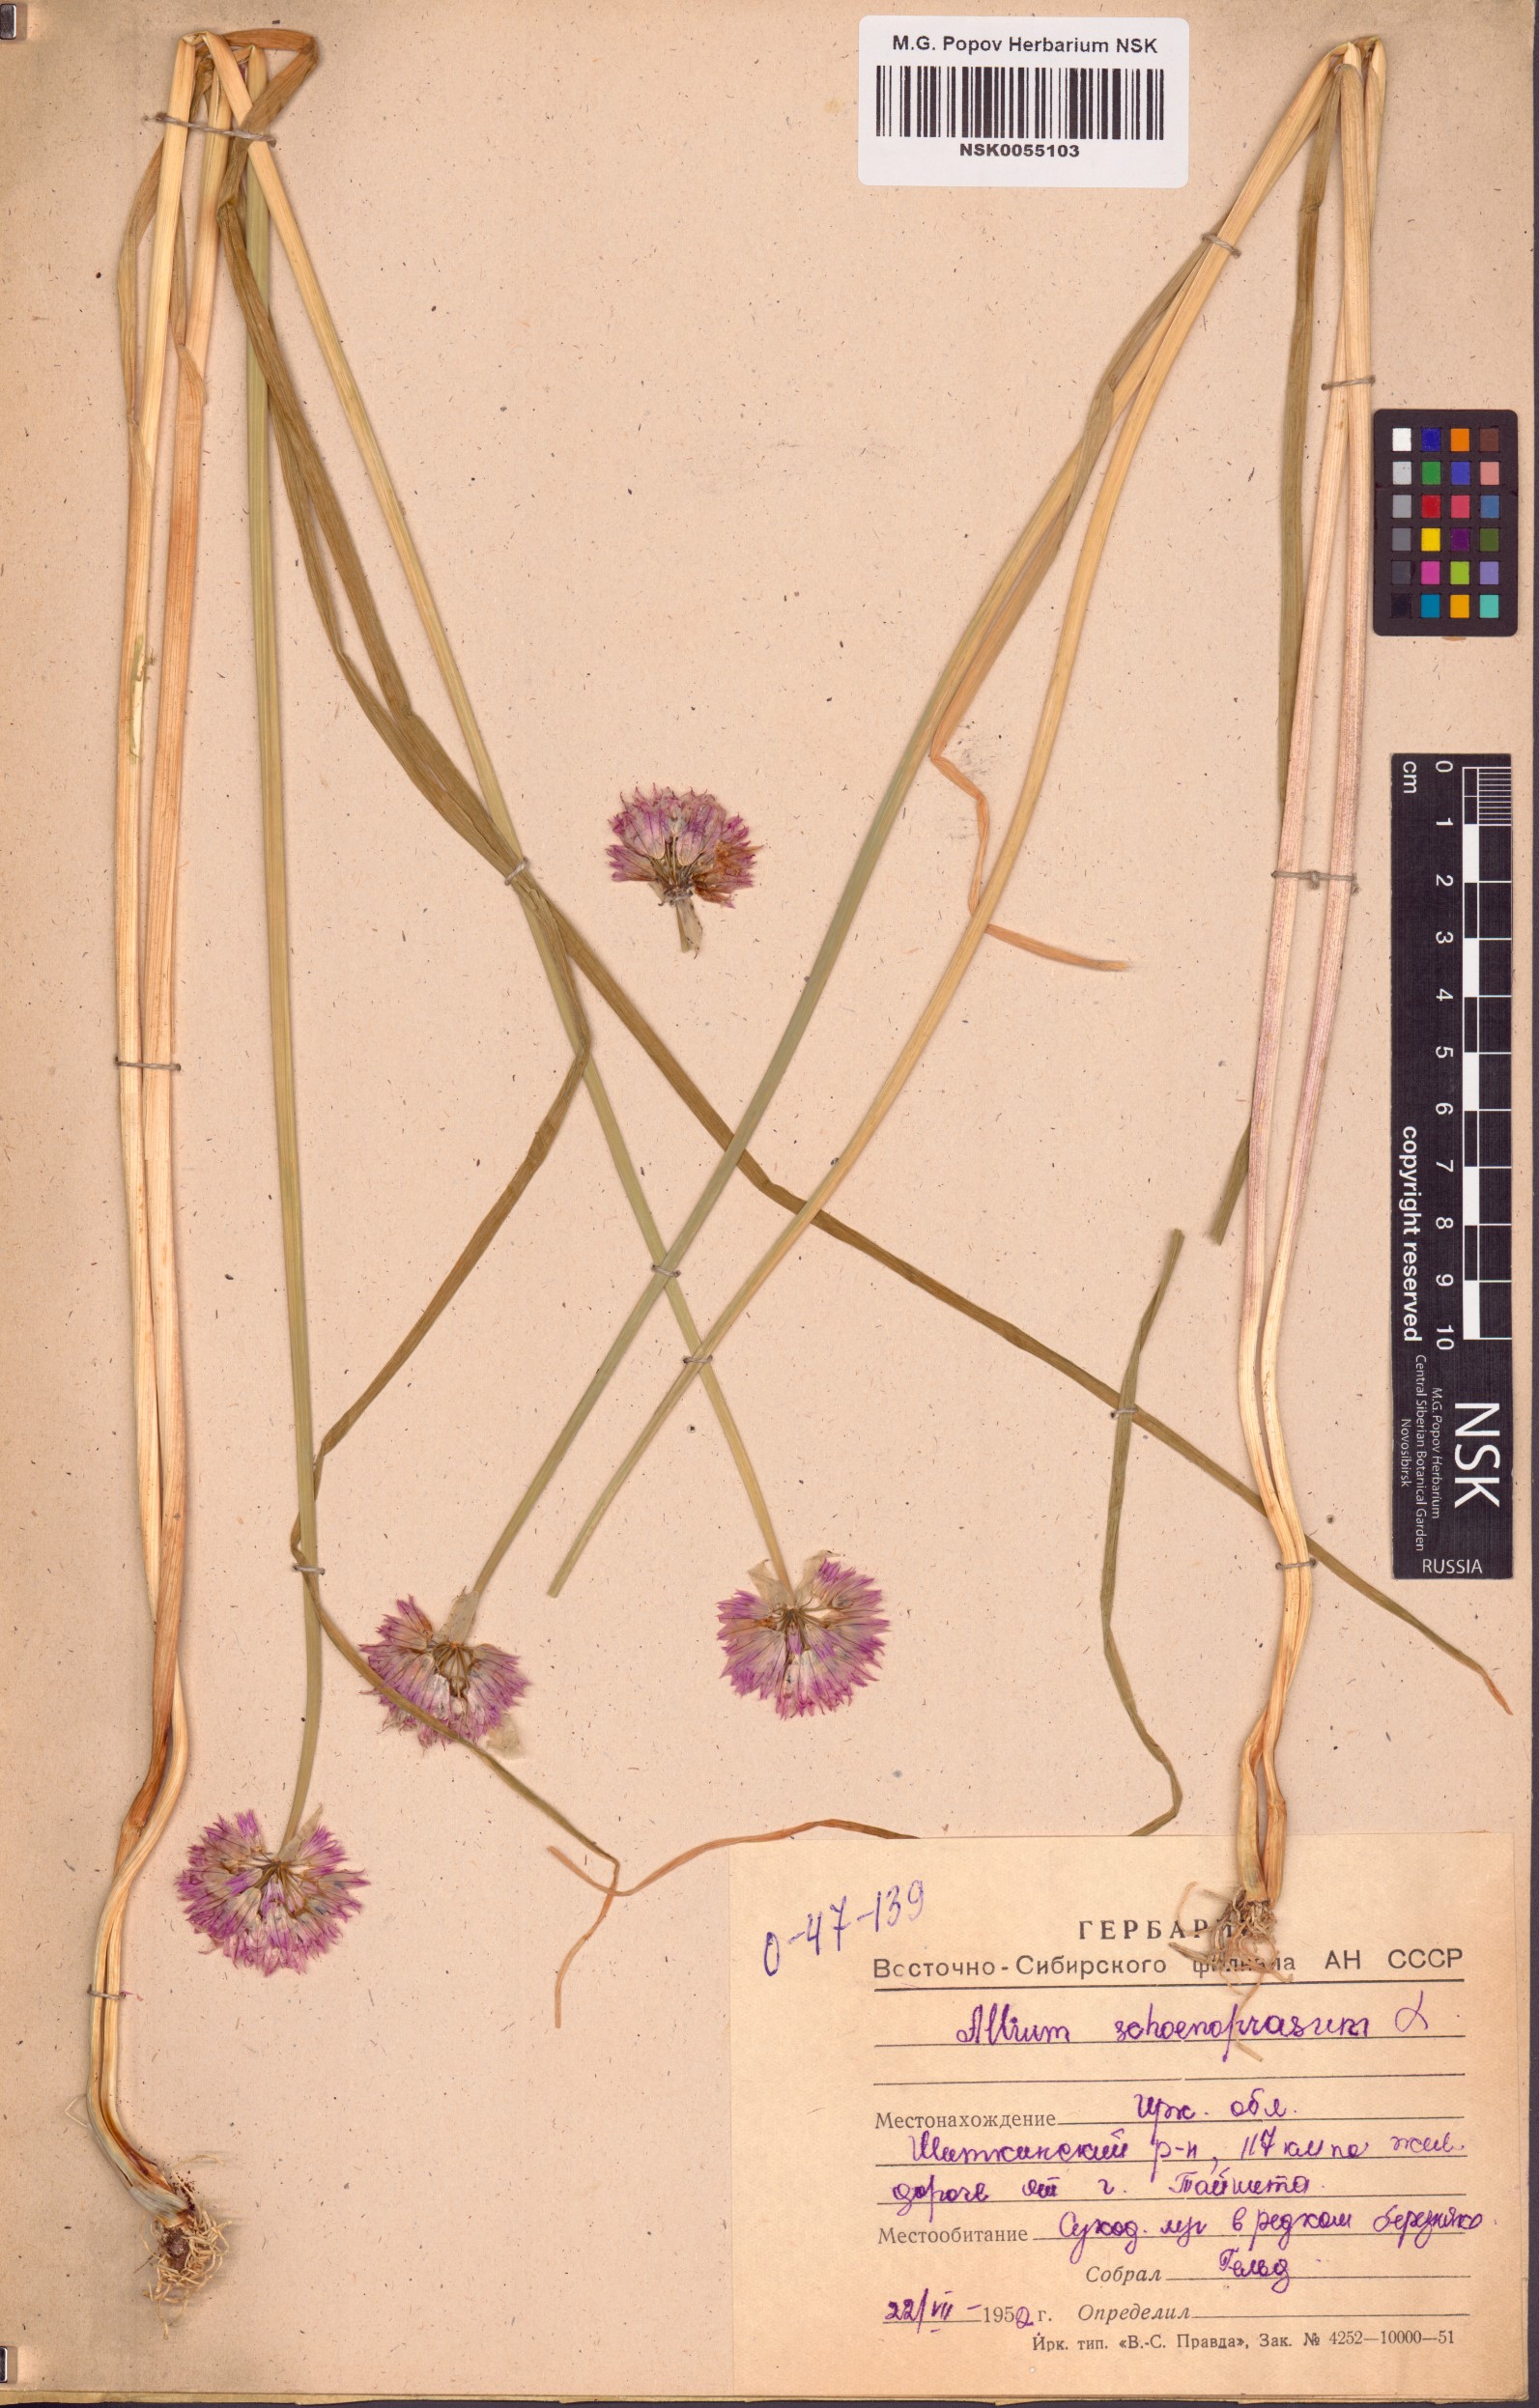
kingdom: Plantae
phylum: Tracheophyta
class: Liliopsida
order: Asparagales
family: Amaryllidaceae
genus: Allium
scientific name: Allium schoenoprasum
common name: Chives
